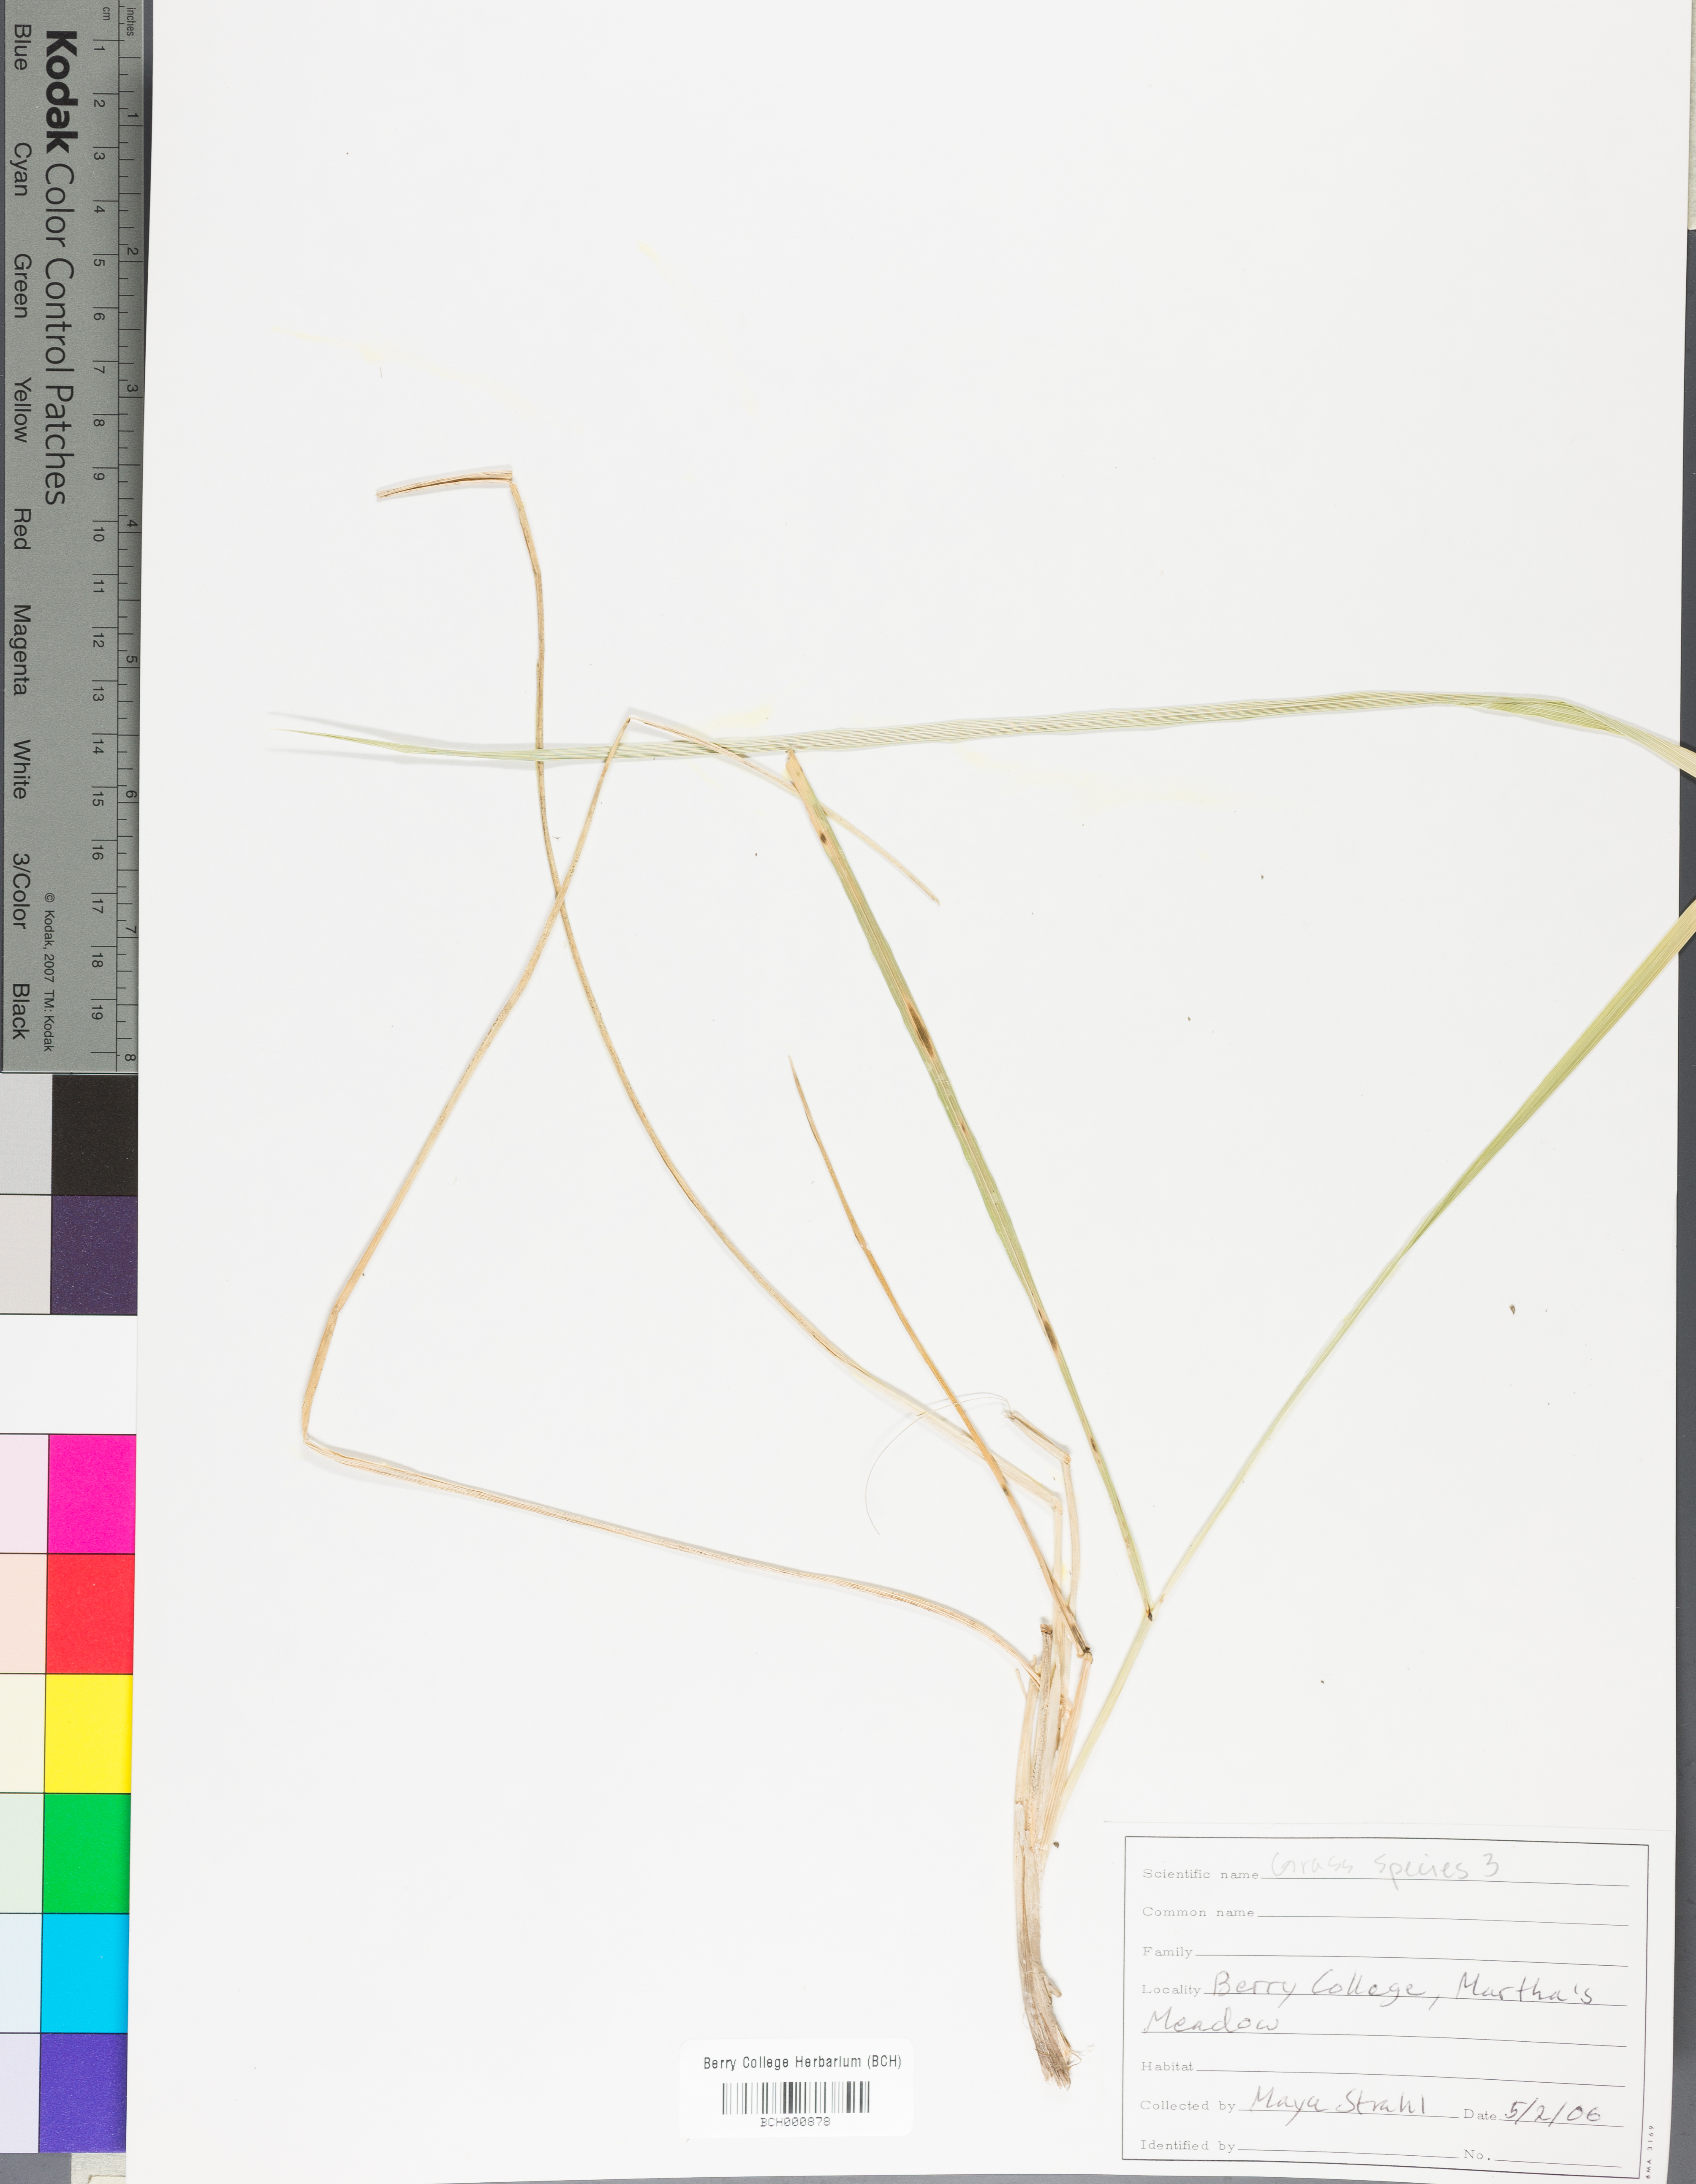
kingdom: Plantae
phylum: Tracheophyta
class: Magnoliopsida
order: Lamiales
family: Acanthaceae
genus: Adhatoda
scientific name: Adhatoda
